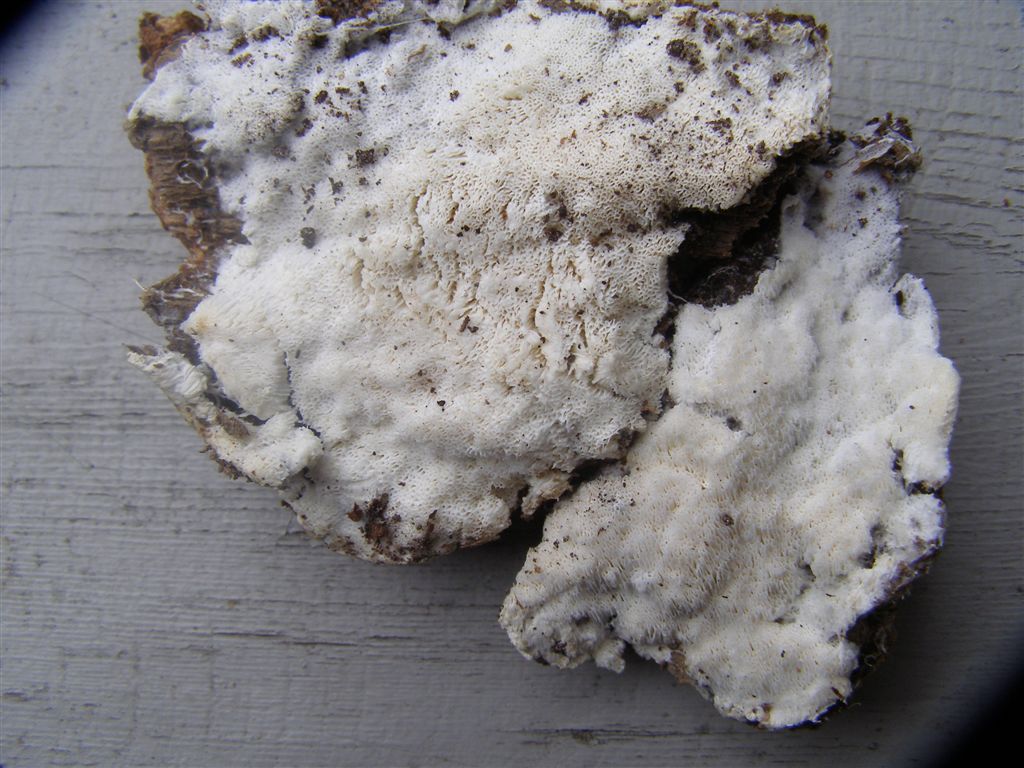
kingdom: Fungi
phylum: Basidiomycota
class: Agaricomycetes
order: Trechisporales
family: Sistotremataceae
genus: Trechispora
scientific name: Trechispora mollusca
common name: pyramide-vathinde
